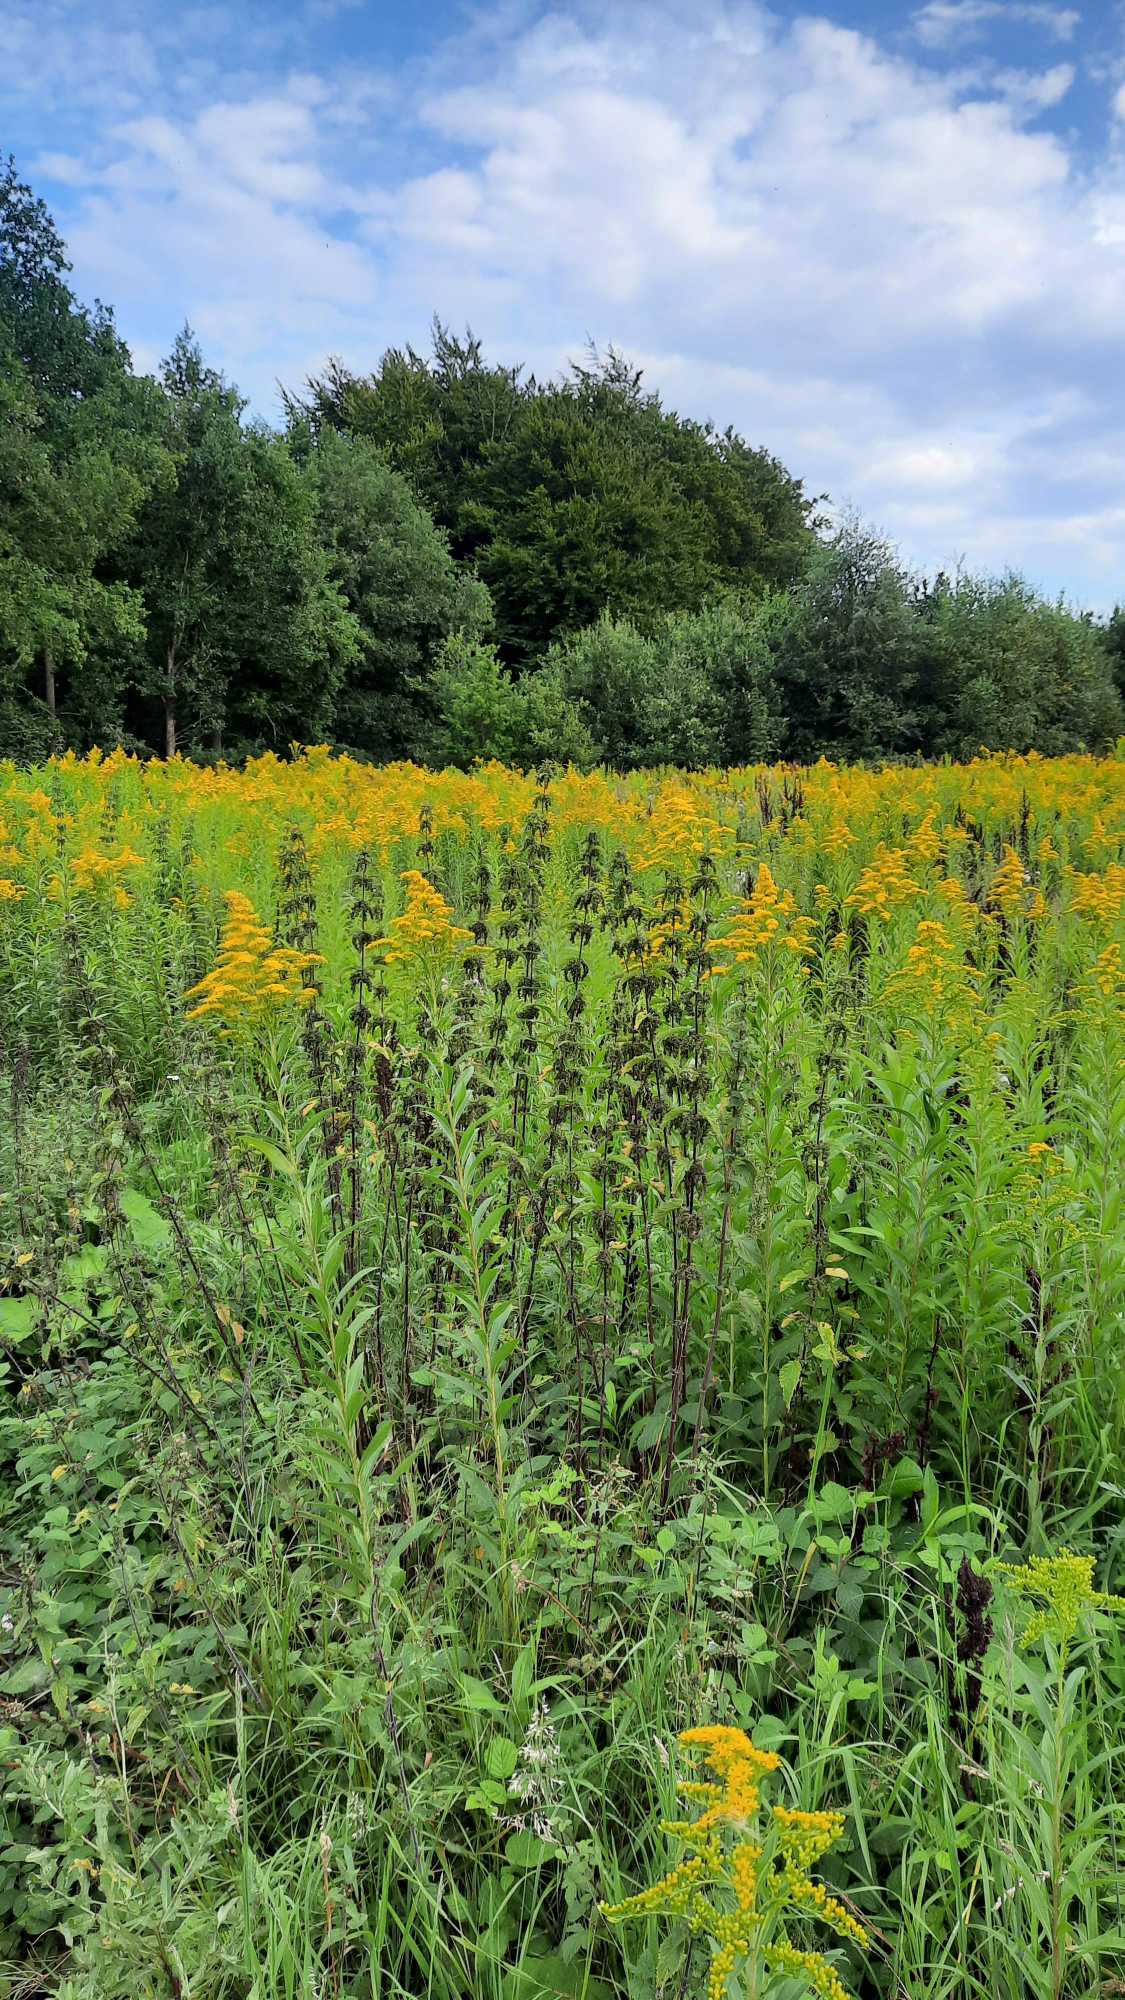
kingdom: Plantae
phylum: Tracheophyta
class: Magnoliopsida
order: Asterales
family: Asteraceae
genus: Solidago
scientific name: Solidago gigantea
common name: Sildig gyldenris
